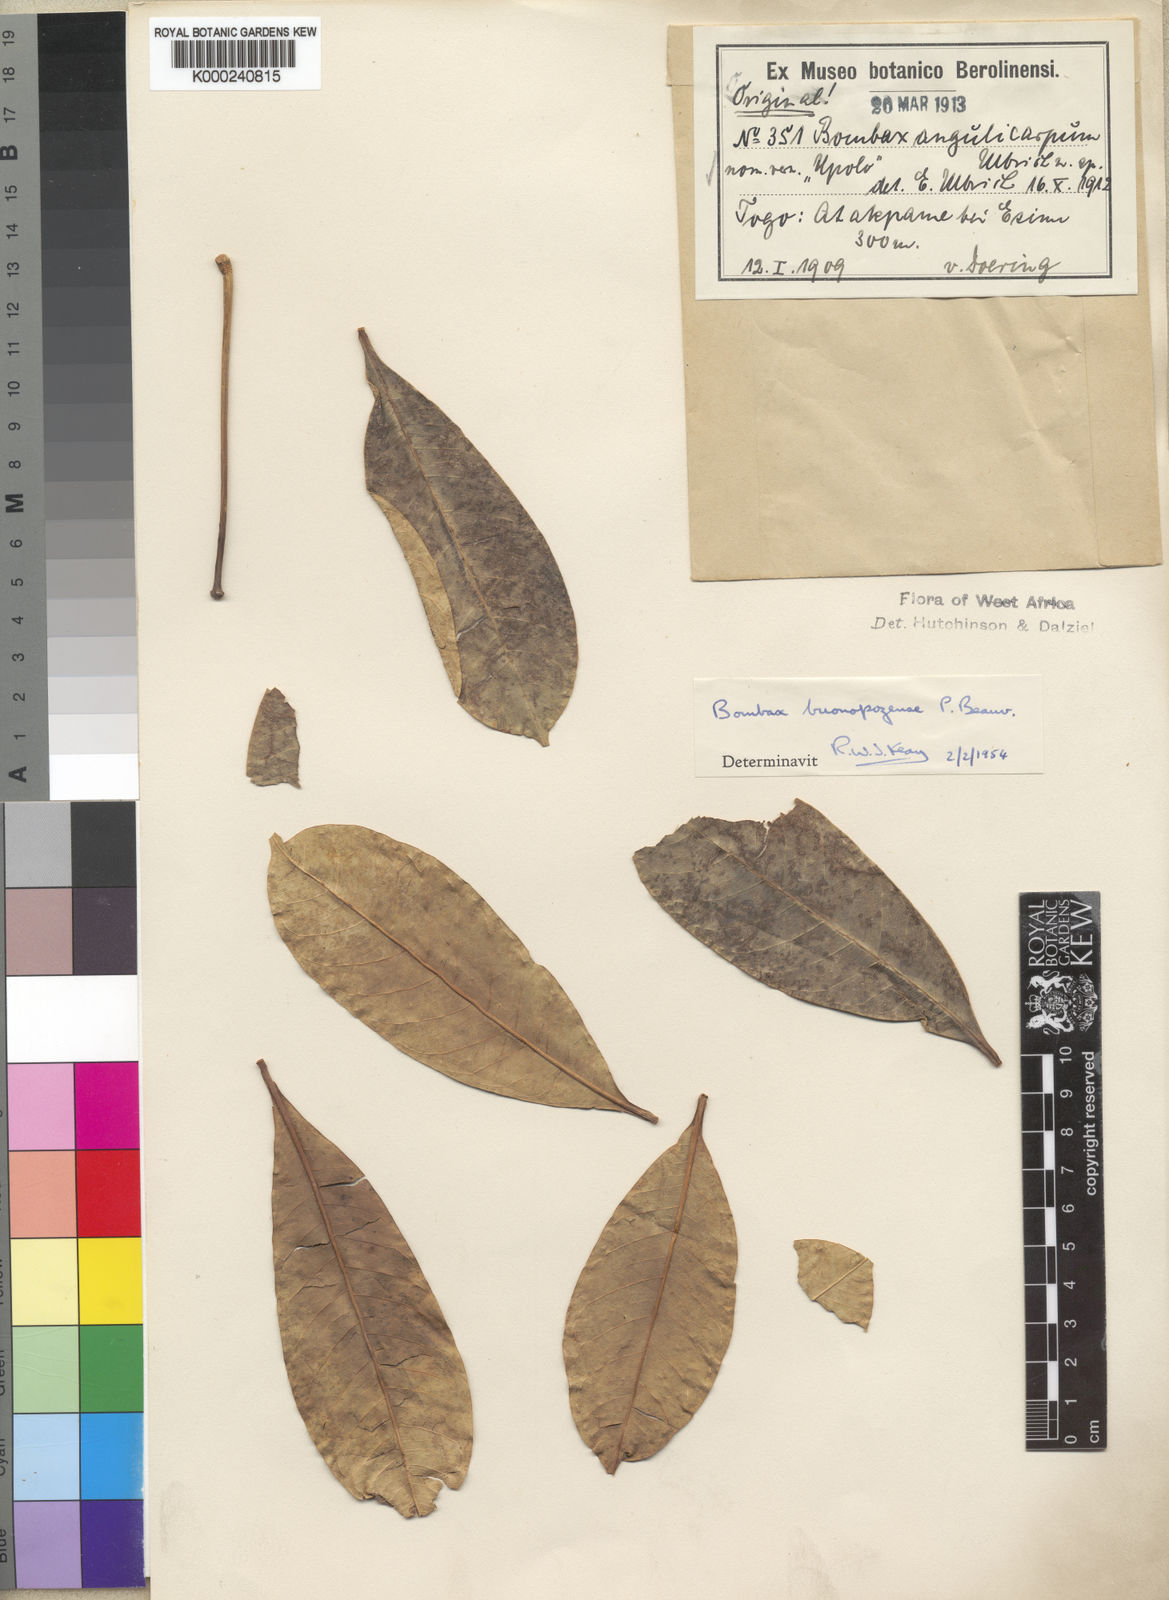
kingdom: Plantae
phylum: Tracheophyta
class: Magnoliopsida
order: Malvales
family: Malvaceae
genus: Bombax
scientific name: Bombax buonopozense
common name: Gold coast bombax
